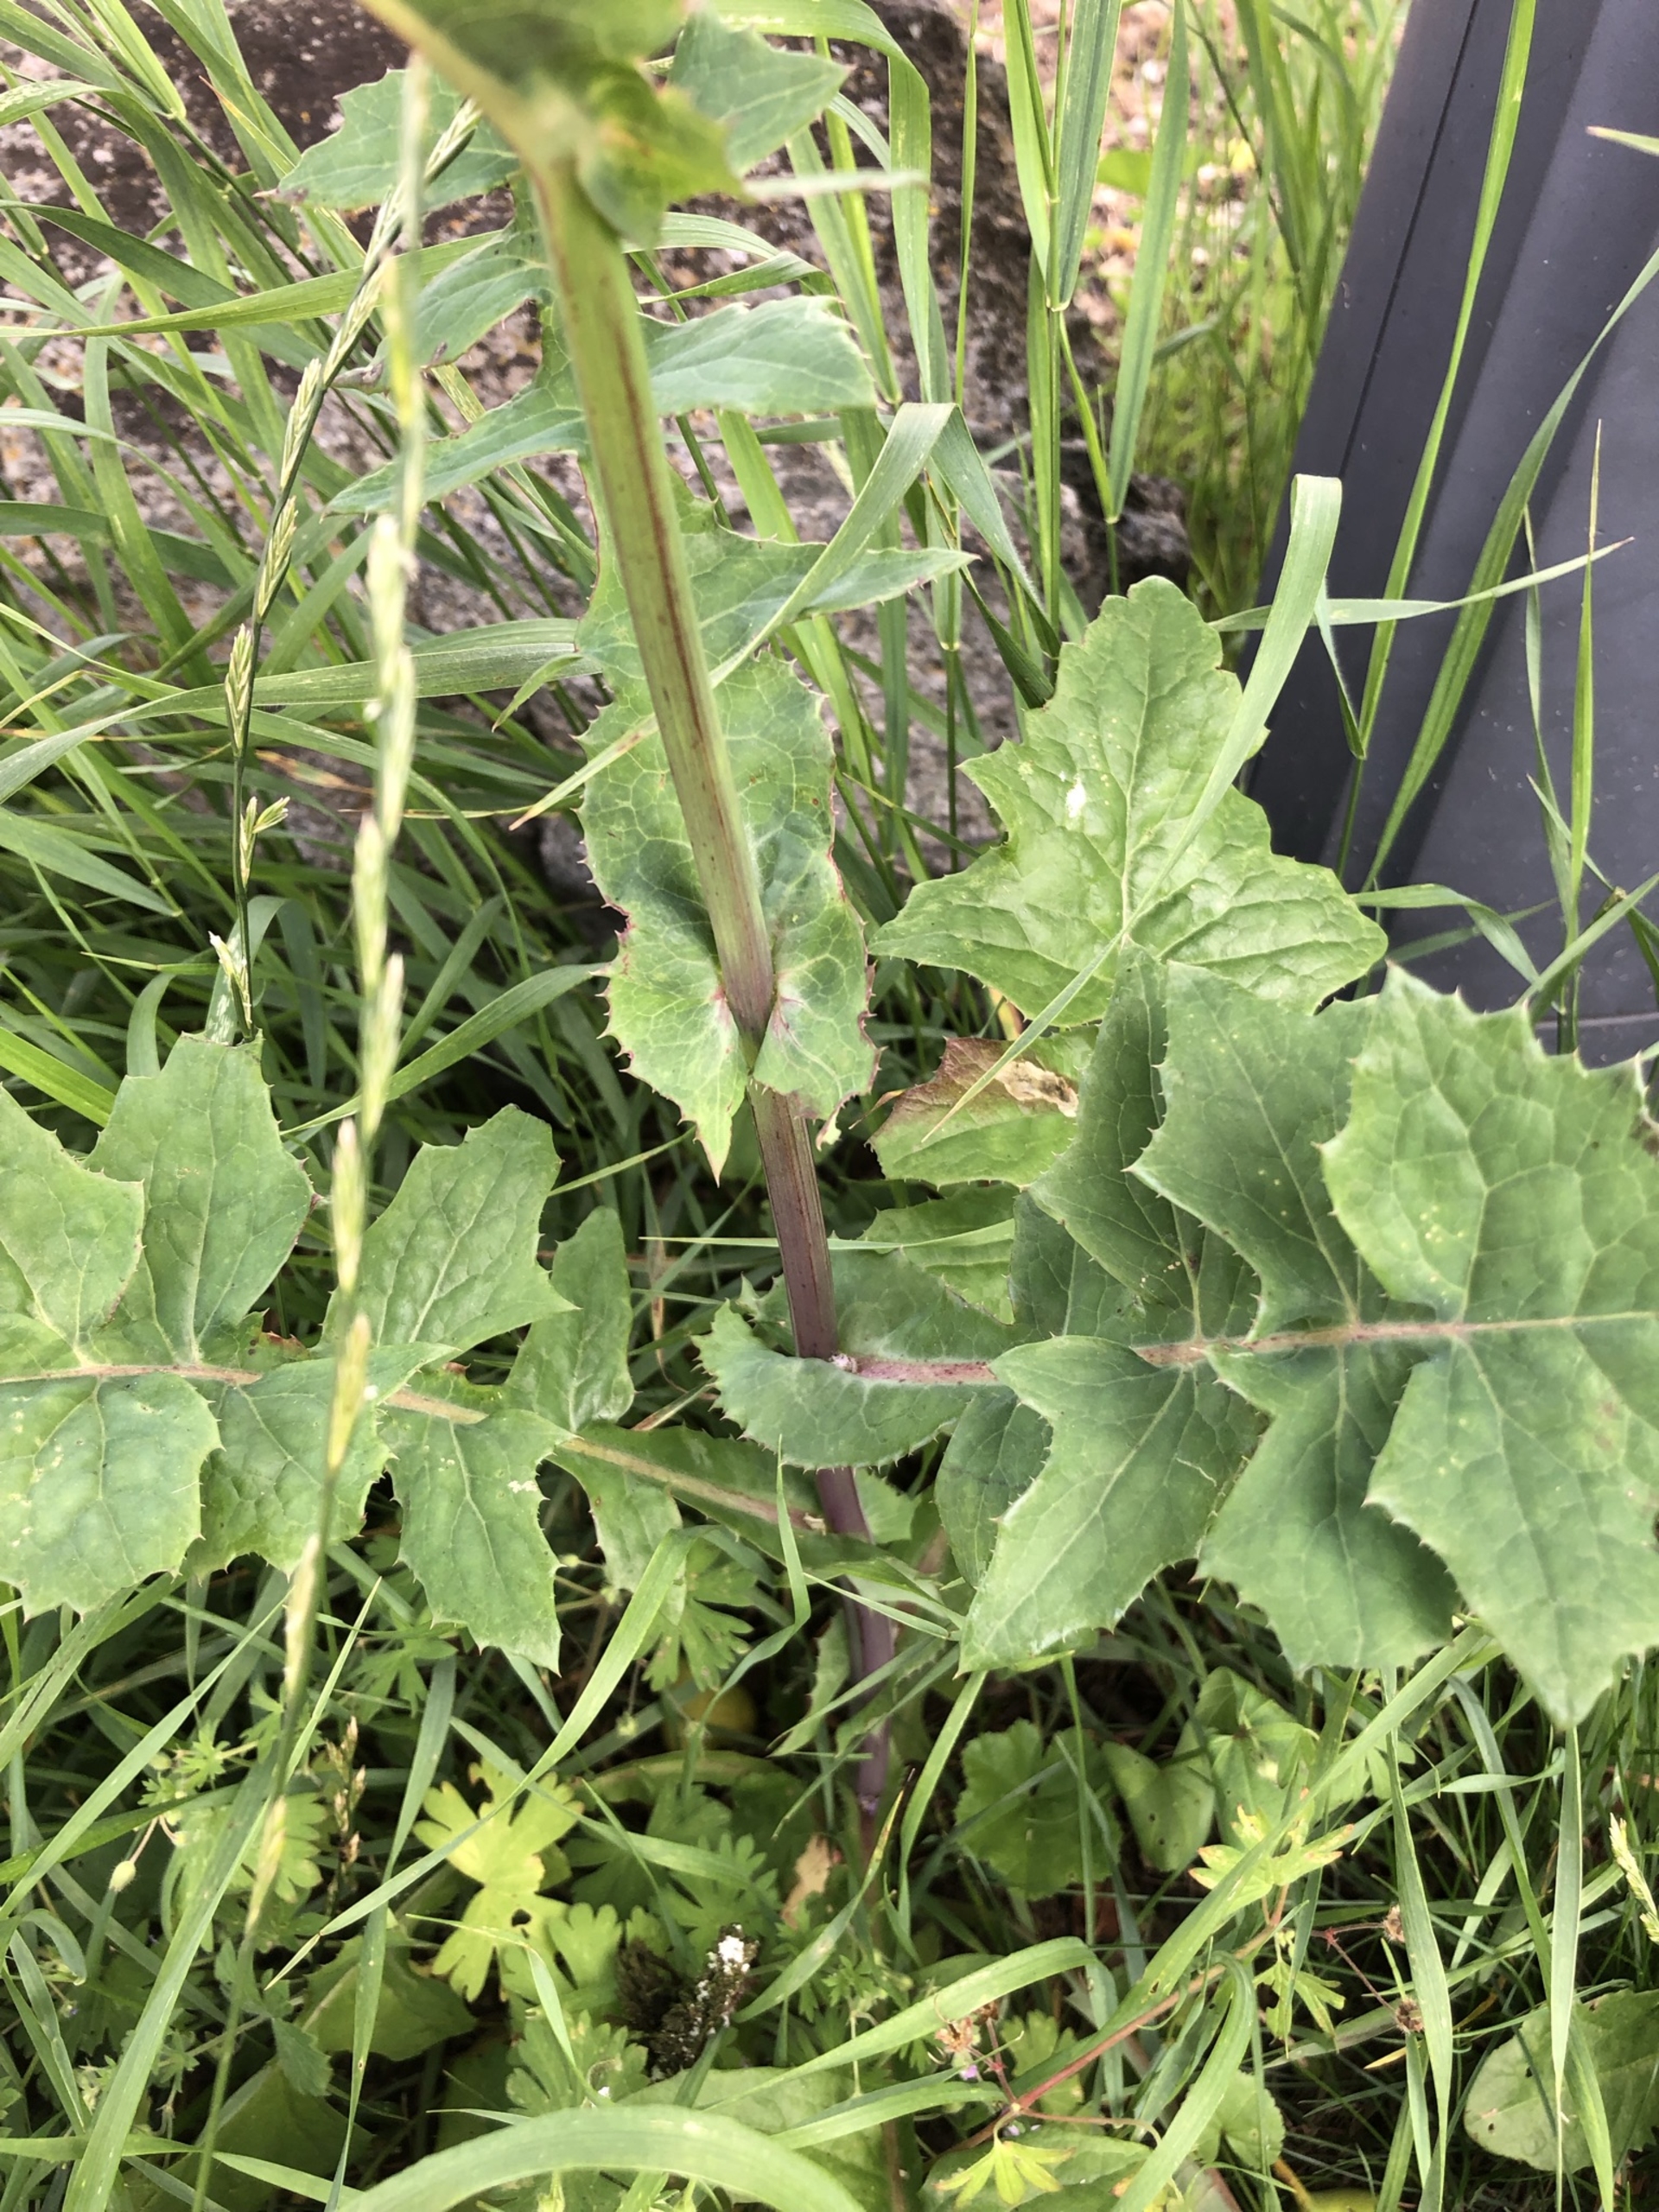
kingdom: Plantae
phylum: Tracheophyta
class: Magnoliopsida
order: Asterales
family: Asteraceae
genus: Sonchus
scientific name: Sonchus oleraceus
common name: Almindelig svinemælk
